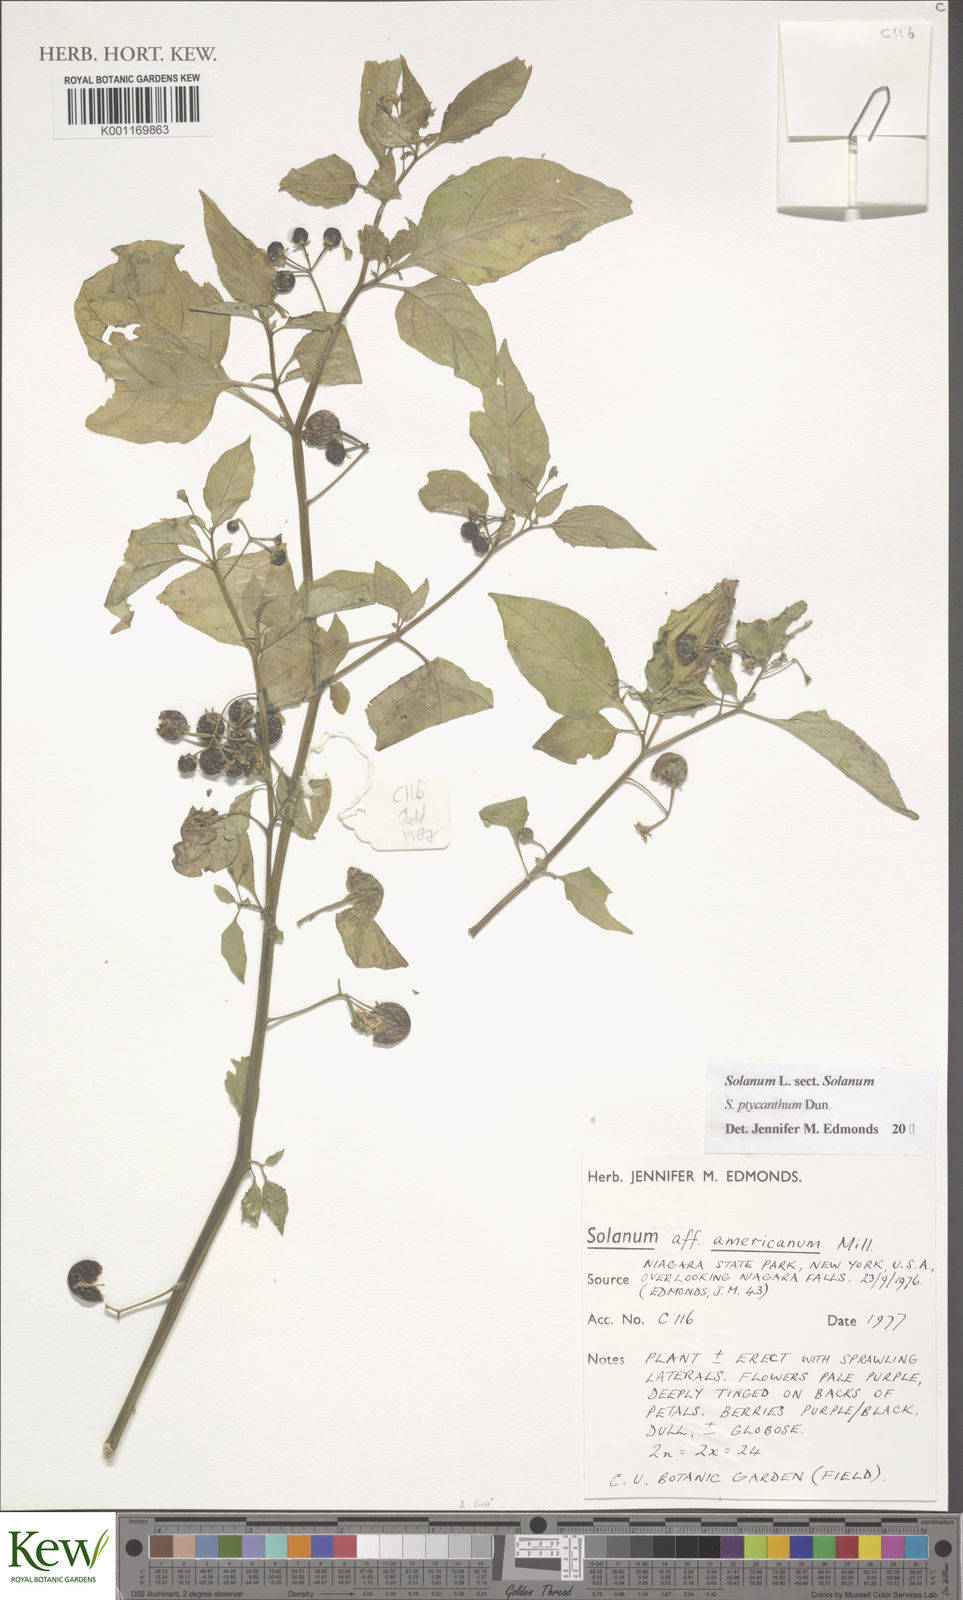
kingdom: Plantae
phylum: Tracheophyta
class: Magnoliopsida
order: Solanales
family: Solanaceae
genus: Solanum
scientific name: Solanum americanum
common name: American black nightshade
